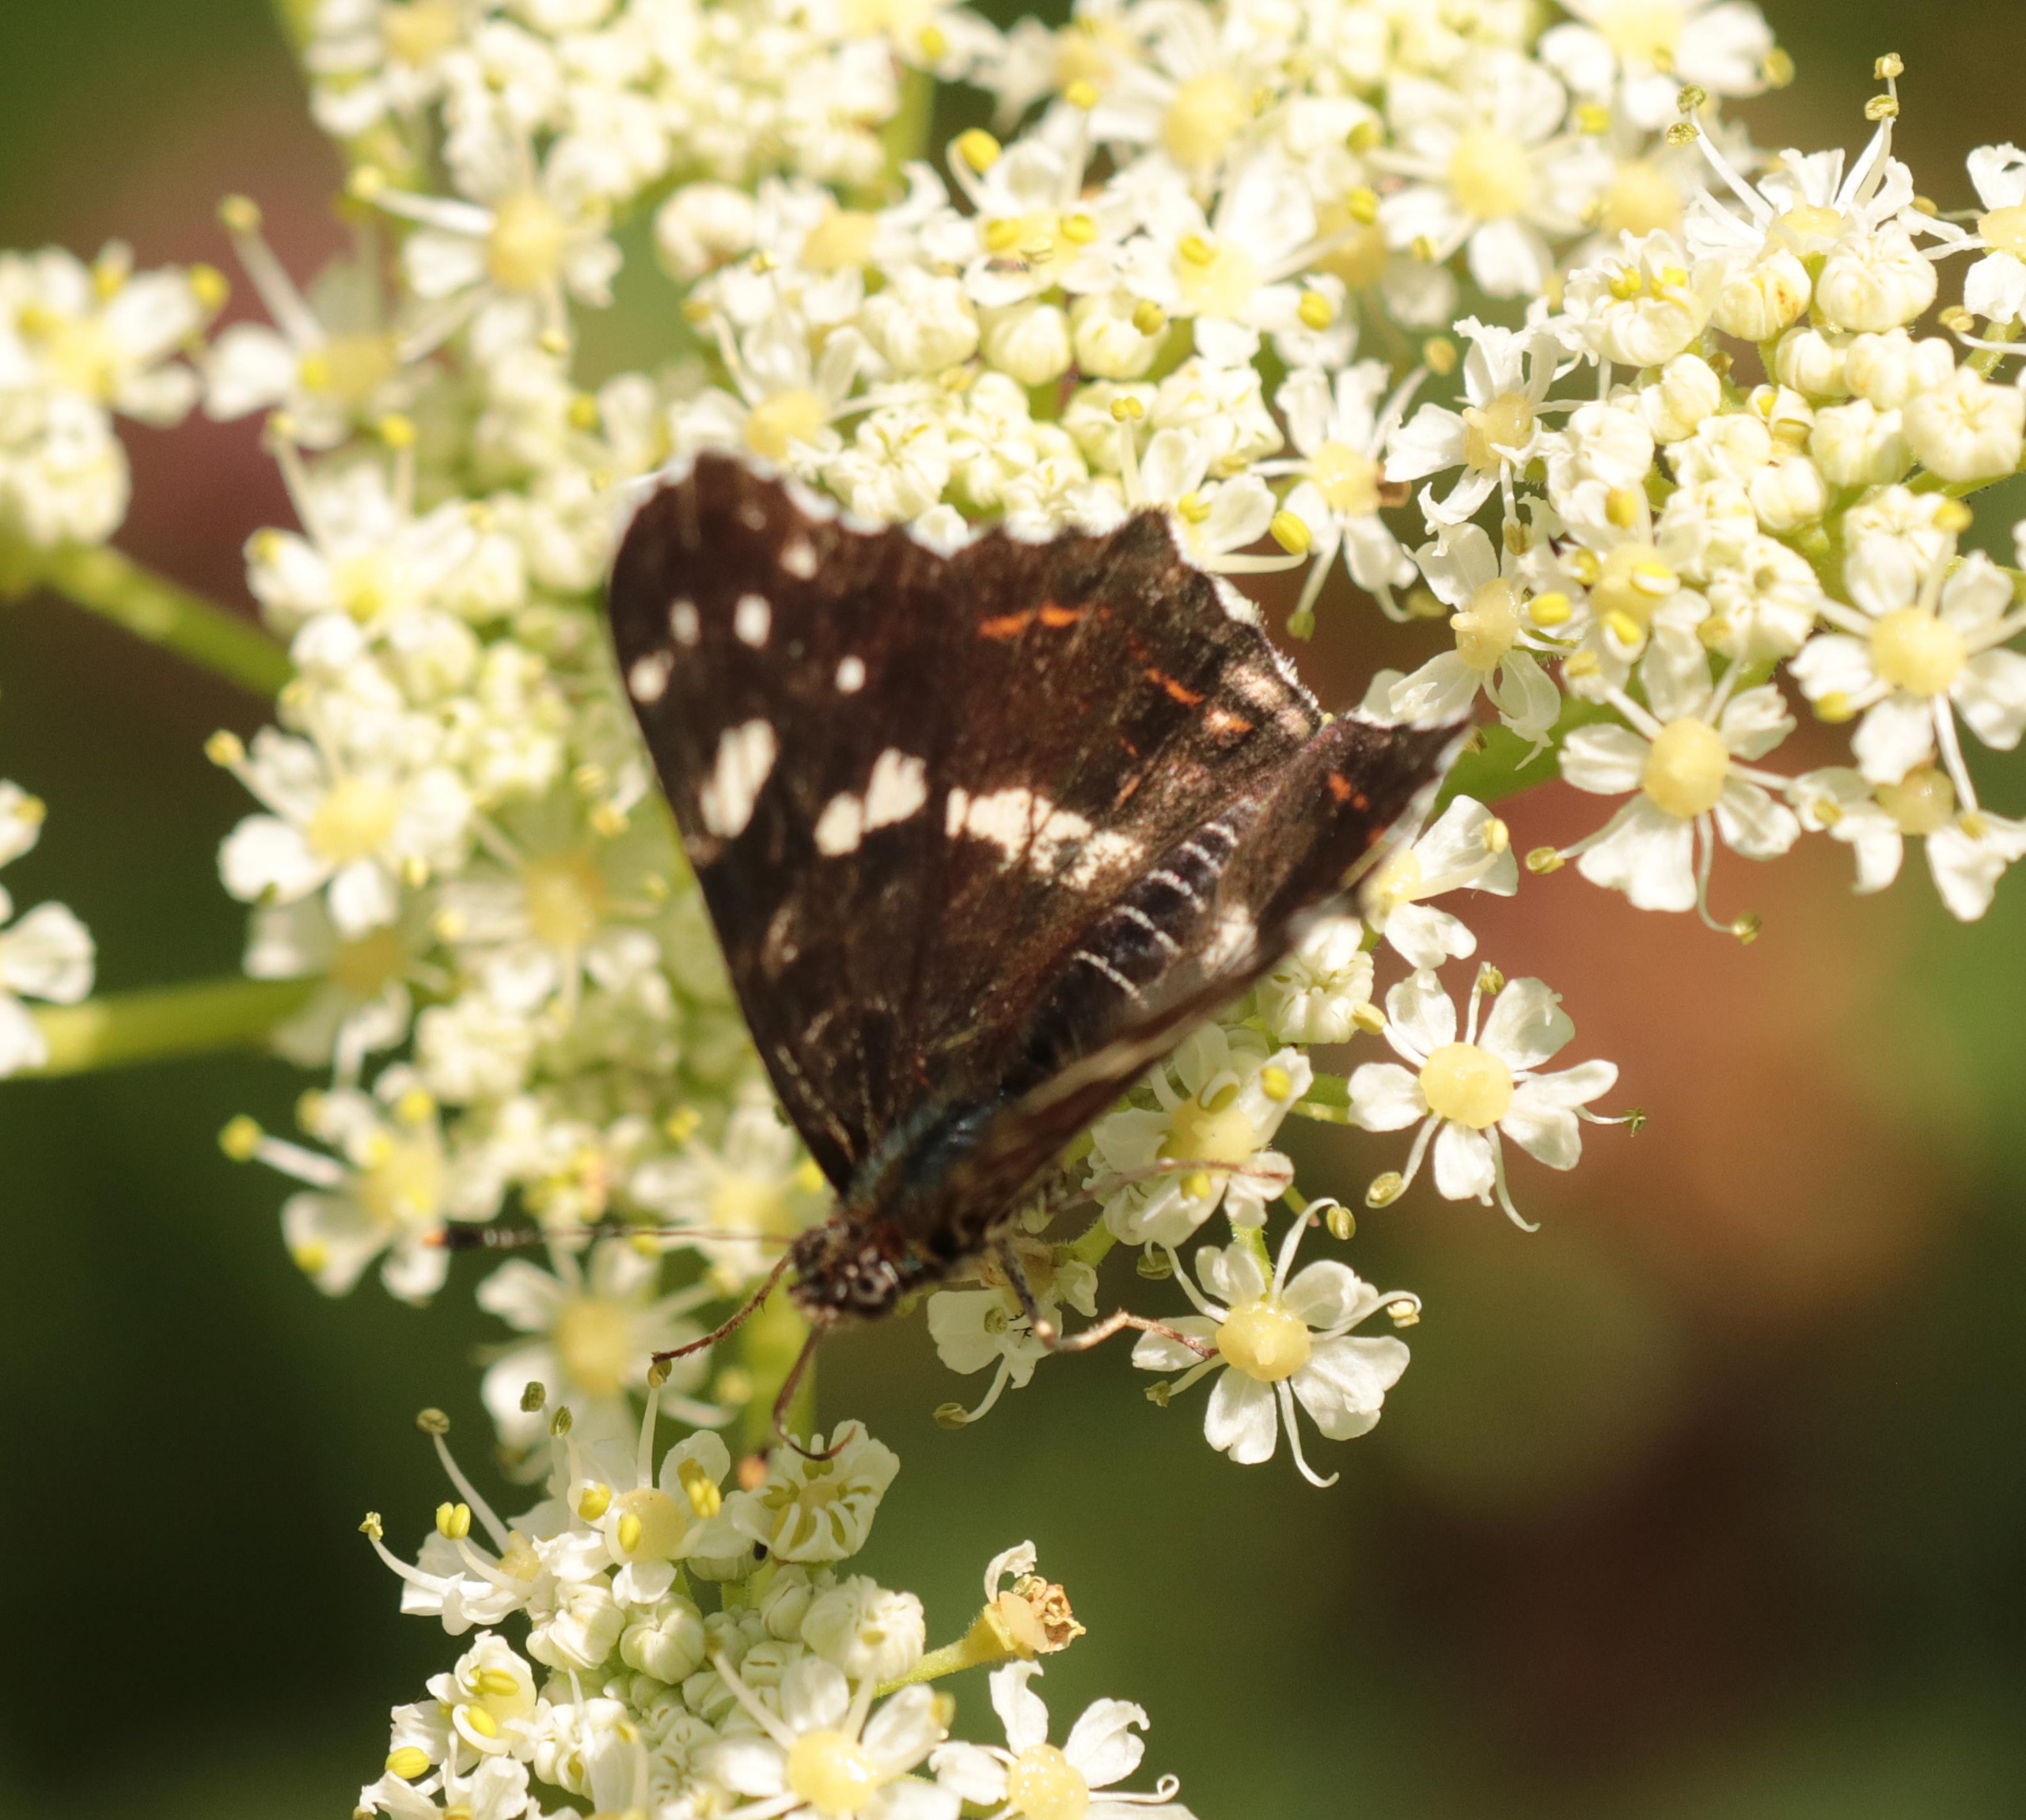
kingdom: Animalia
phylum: Arthropoda
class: Insecta
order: Lepidoptera
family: Nymphalidae
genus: Araschnia
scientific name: Araschnia levana
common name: Nældesommerfugl
